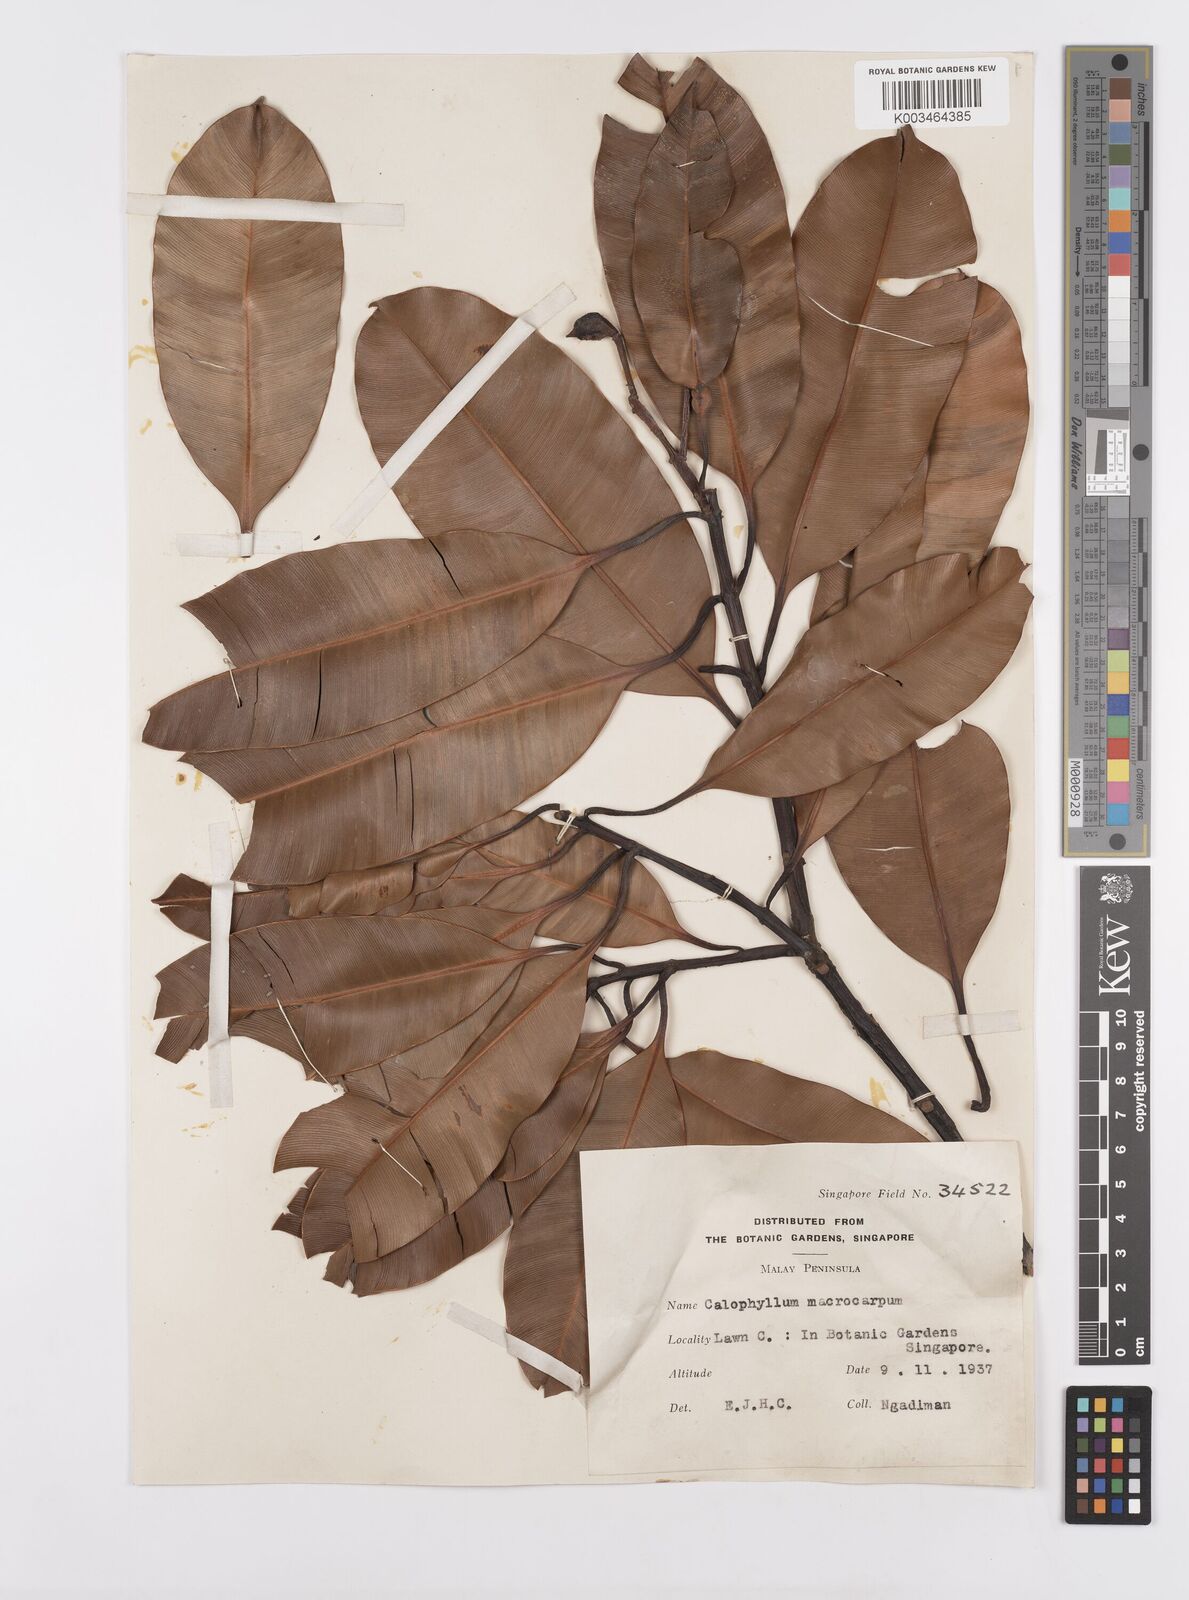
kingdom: Plantae
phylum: Tracheophyta
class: Magnoliopsida
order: Malpighiales
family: Calophyllaceae
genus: Calophyllum
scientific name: Calophyllum macrocarpum
